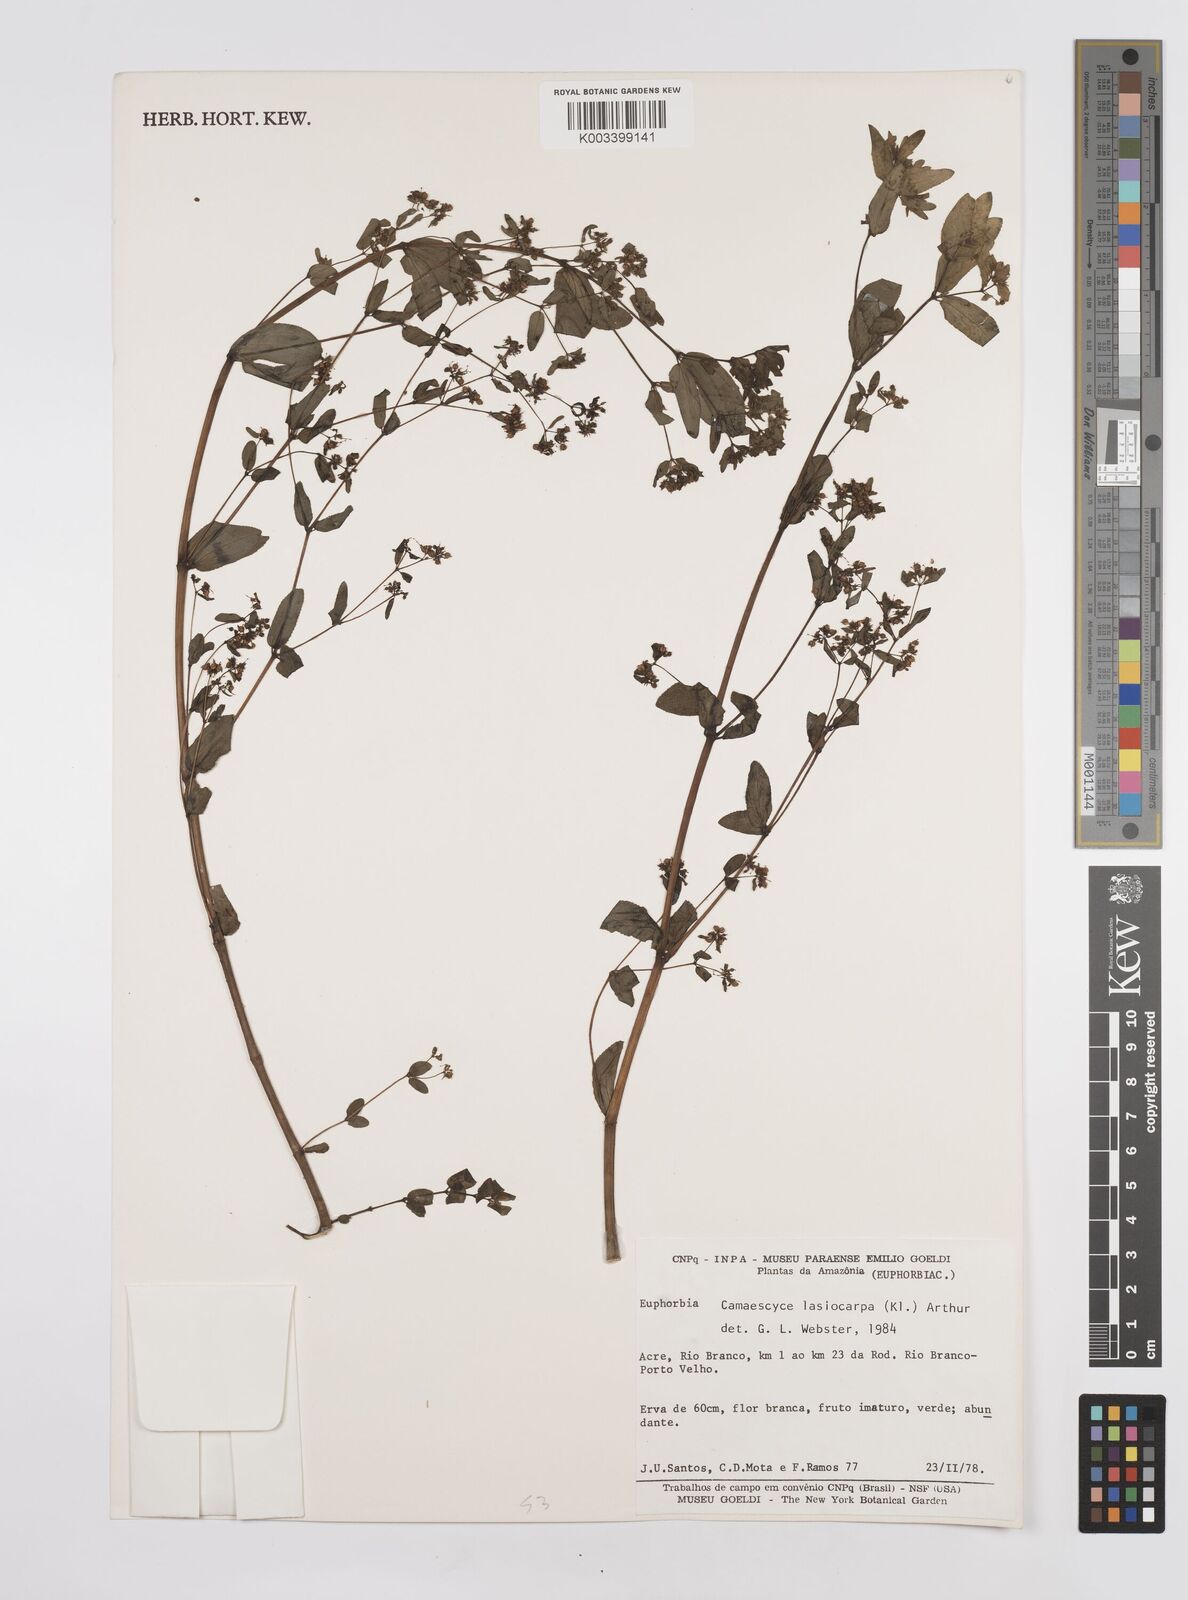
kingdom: Plantae
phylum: Tracheophyta
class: Magnoliopsida
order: Malpighiales
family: Euphorbiaceae
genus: Euphorbia
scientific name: Euphorbia
